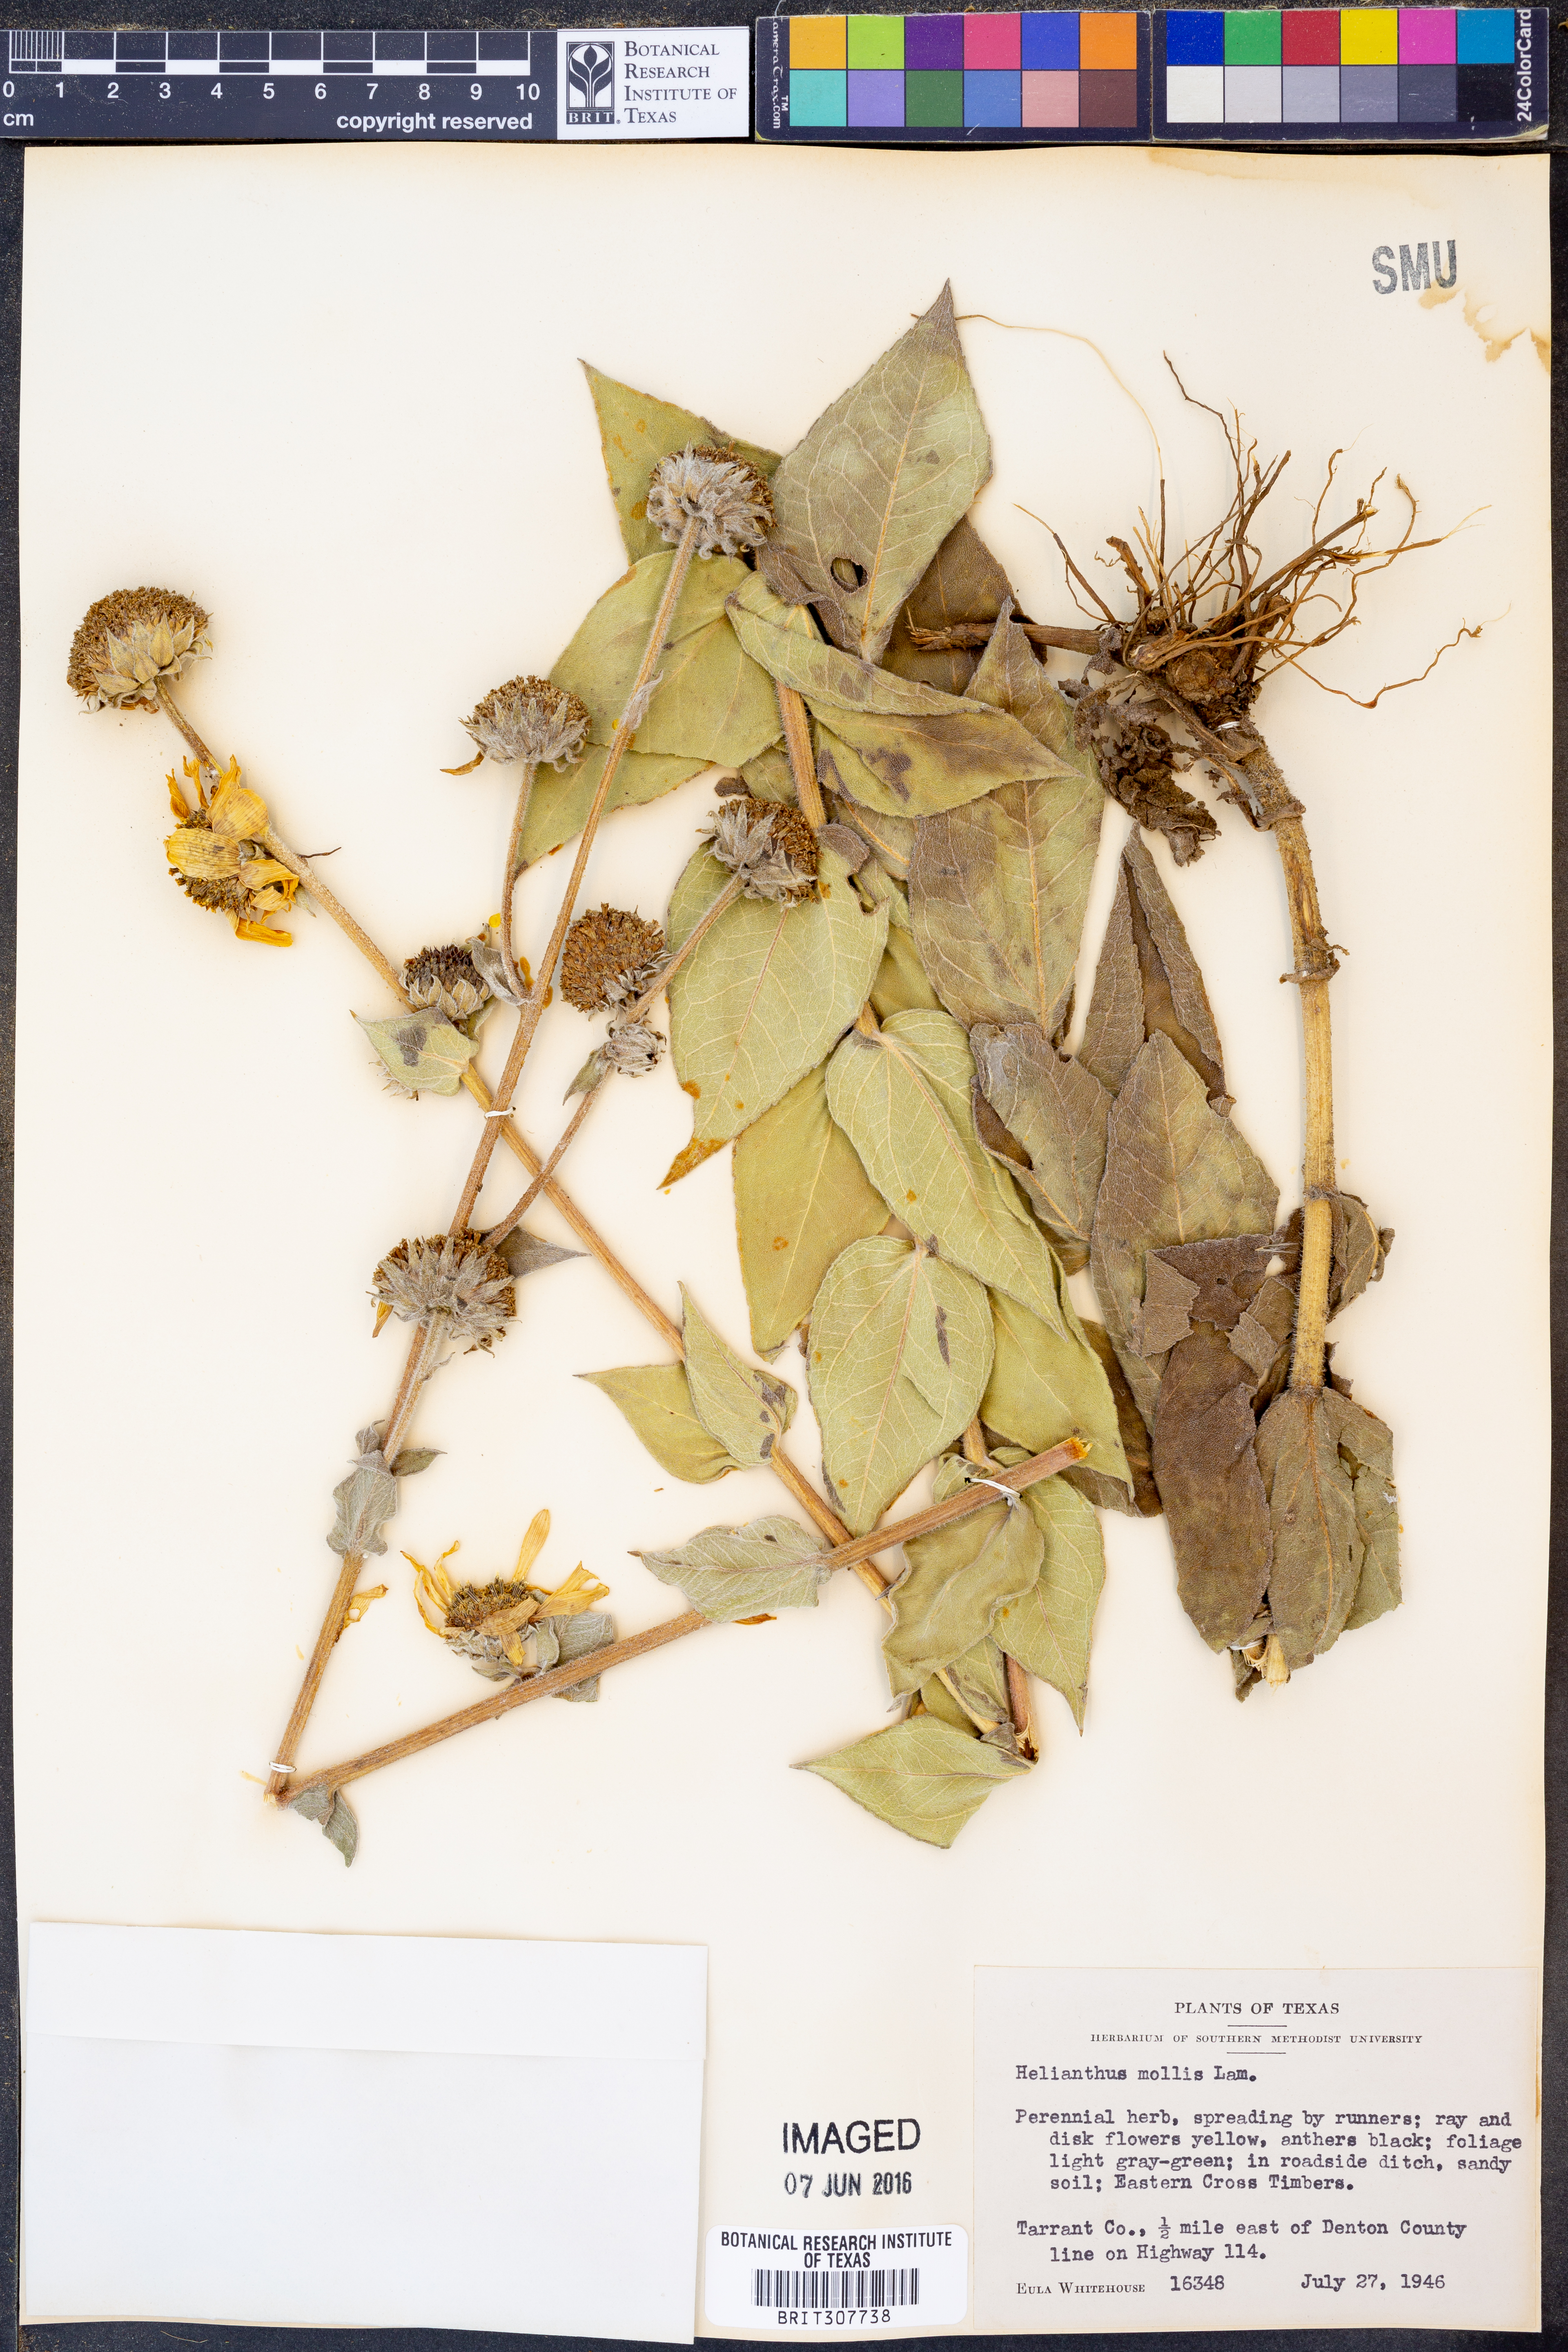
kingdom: Plantae
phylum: Tracheophyta
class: Magnoliopsida
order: Asterales
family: Asteraceae
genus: Helianthus
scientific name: Helianthus mollis
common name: Ashy sunflower
